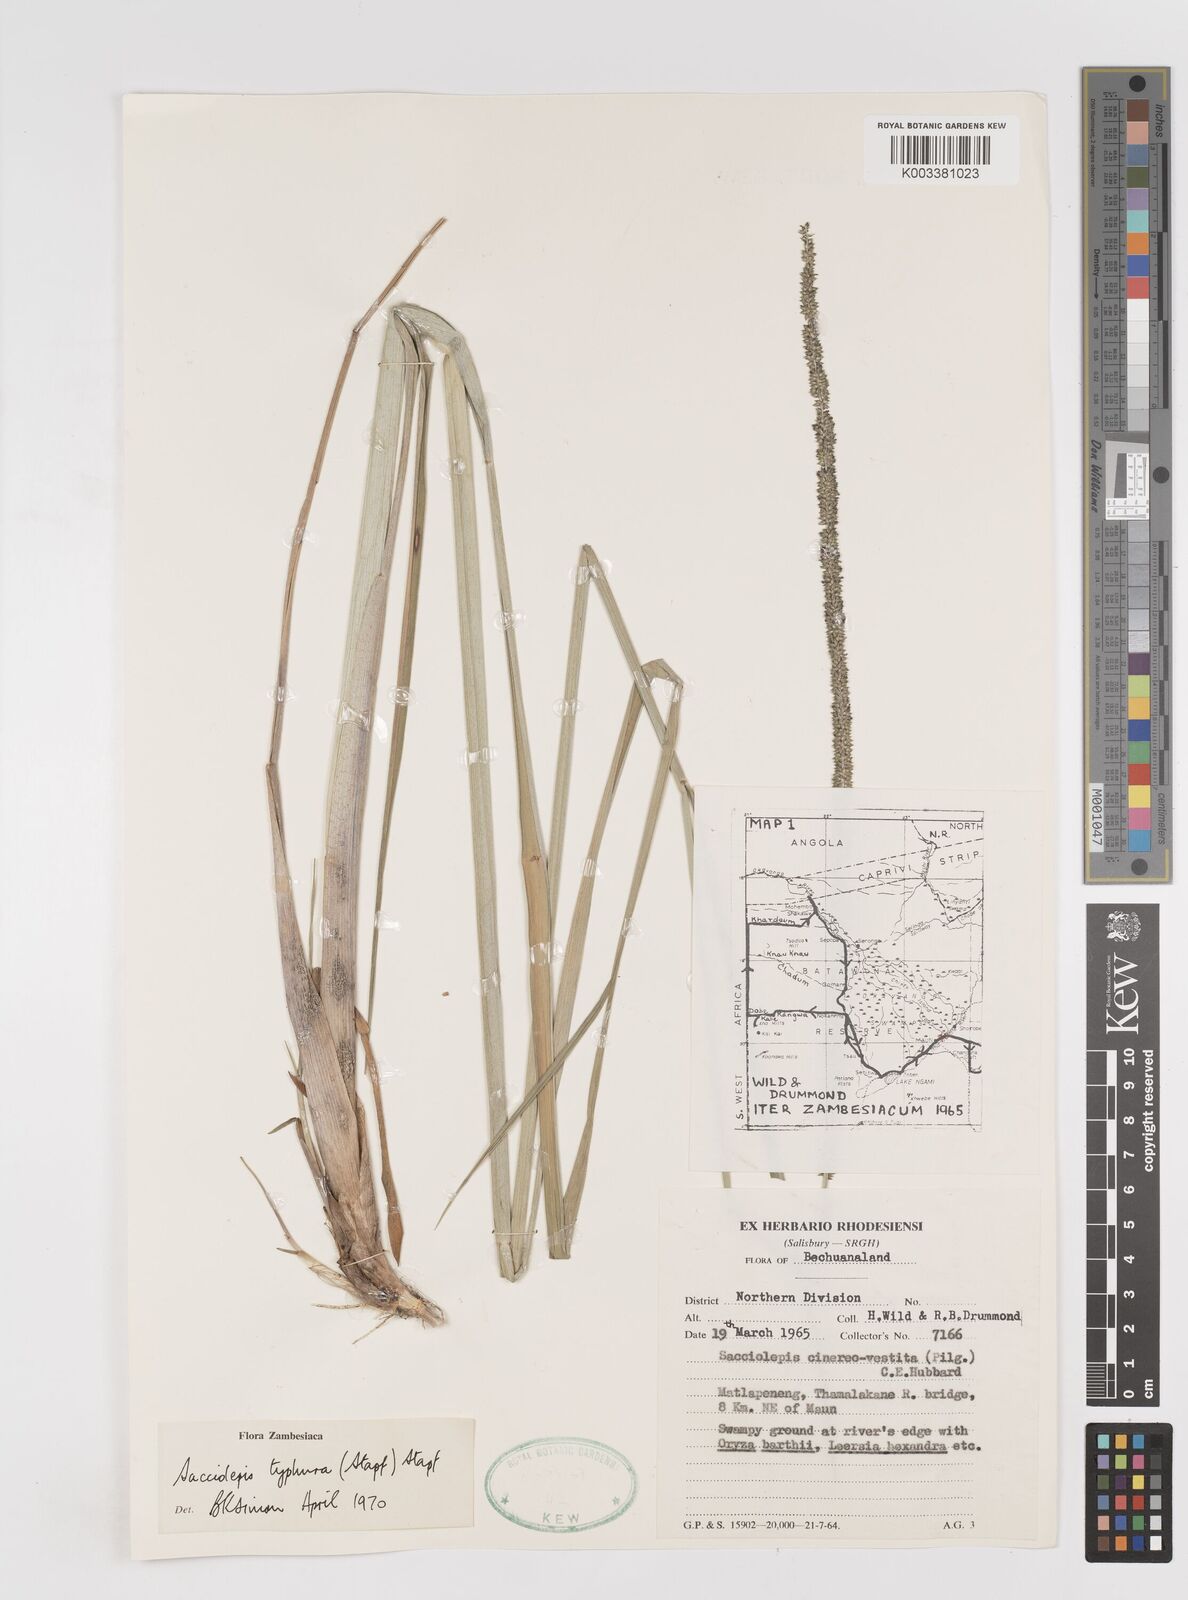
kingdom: Plantae
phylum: Tracheophyta
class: Liliopsida
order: Poales
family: Poaceae
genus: Sacciolepis
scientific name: Sacciolepis typhura
